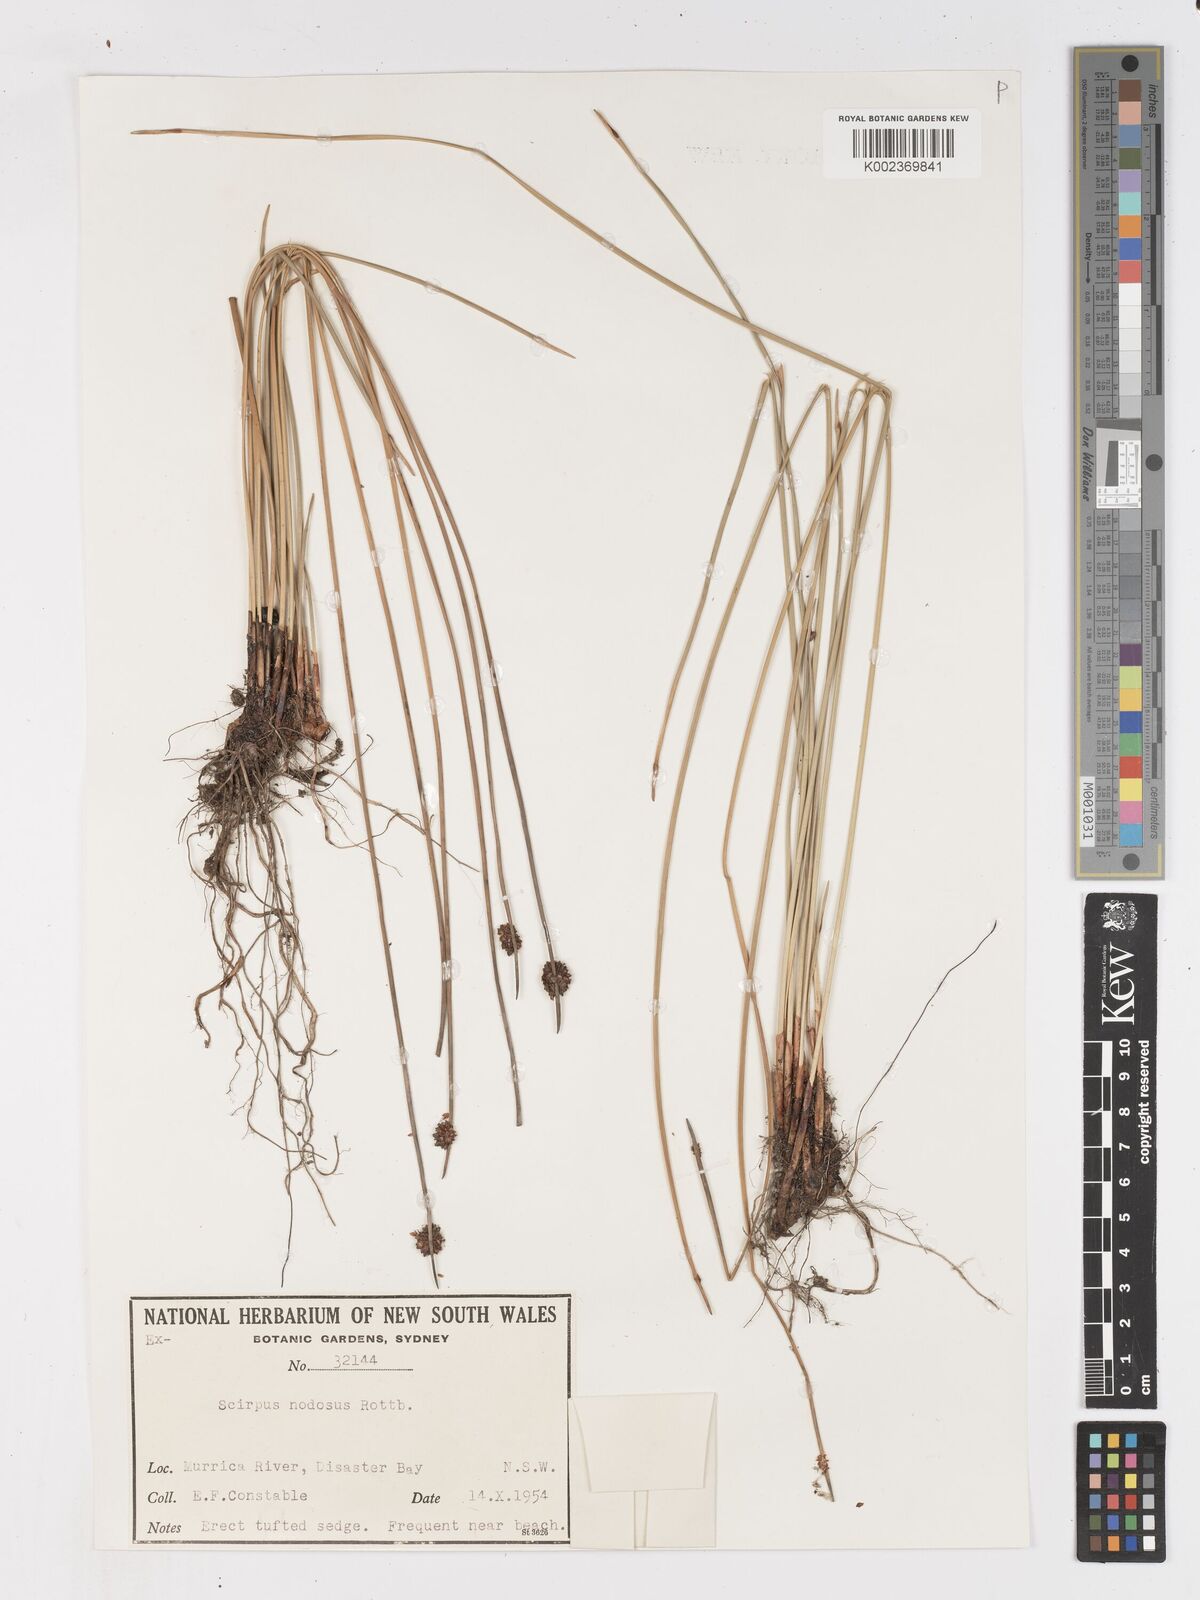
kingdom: Plantae
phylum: Tracheophyta
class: Liliopsida
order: Poales
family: Cyperaceae
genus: Ficinia
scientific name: Ficinia nodosa
